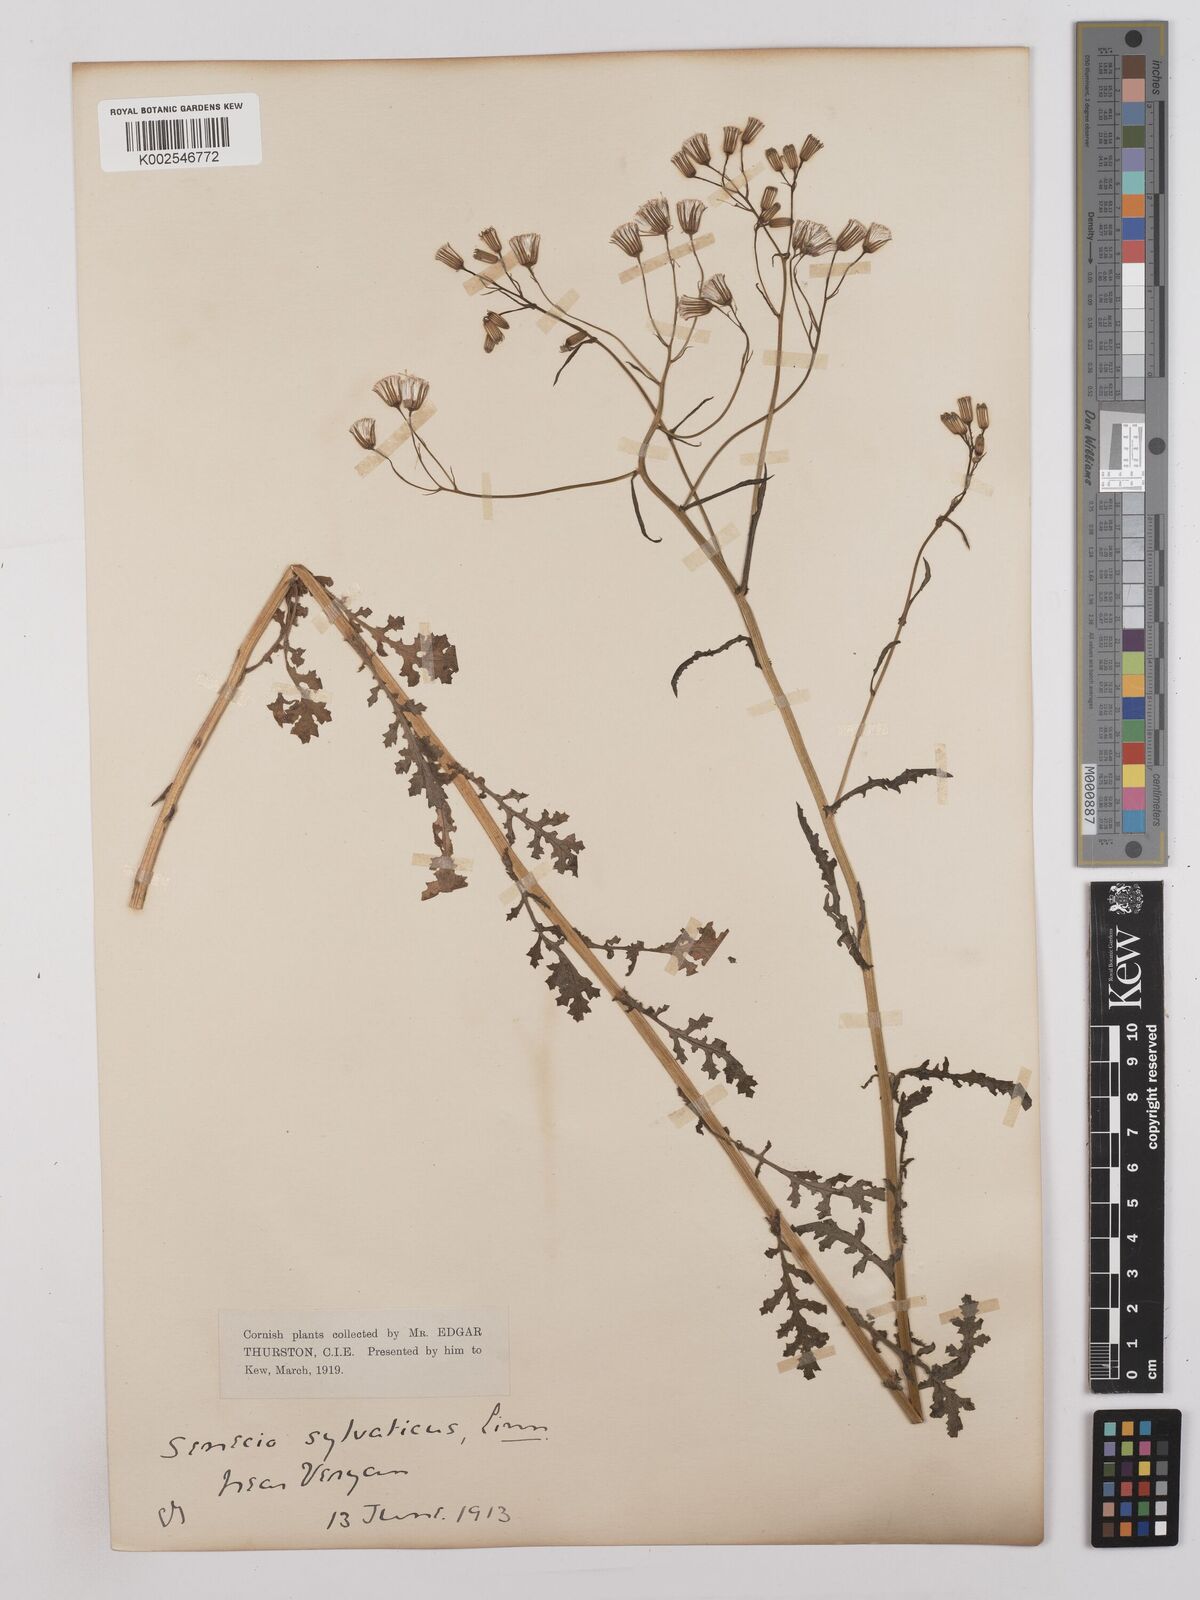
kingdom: Plantae
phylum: Tracheophyta
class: Magnoliopsida
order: Asterales
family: Asteraceae
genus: Senecio
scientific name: Senecio sylvaticus
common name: Woodland ragwort
